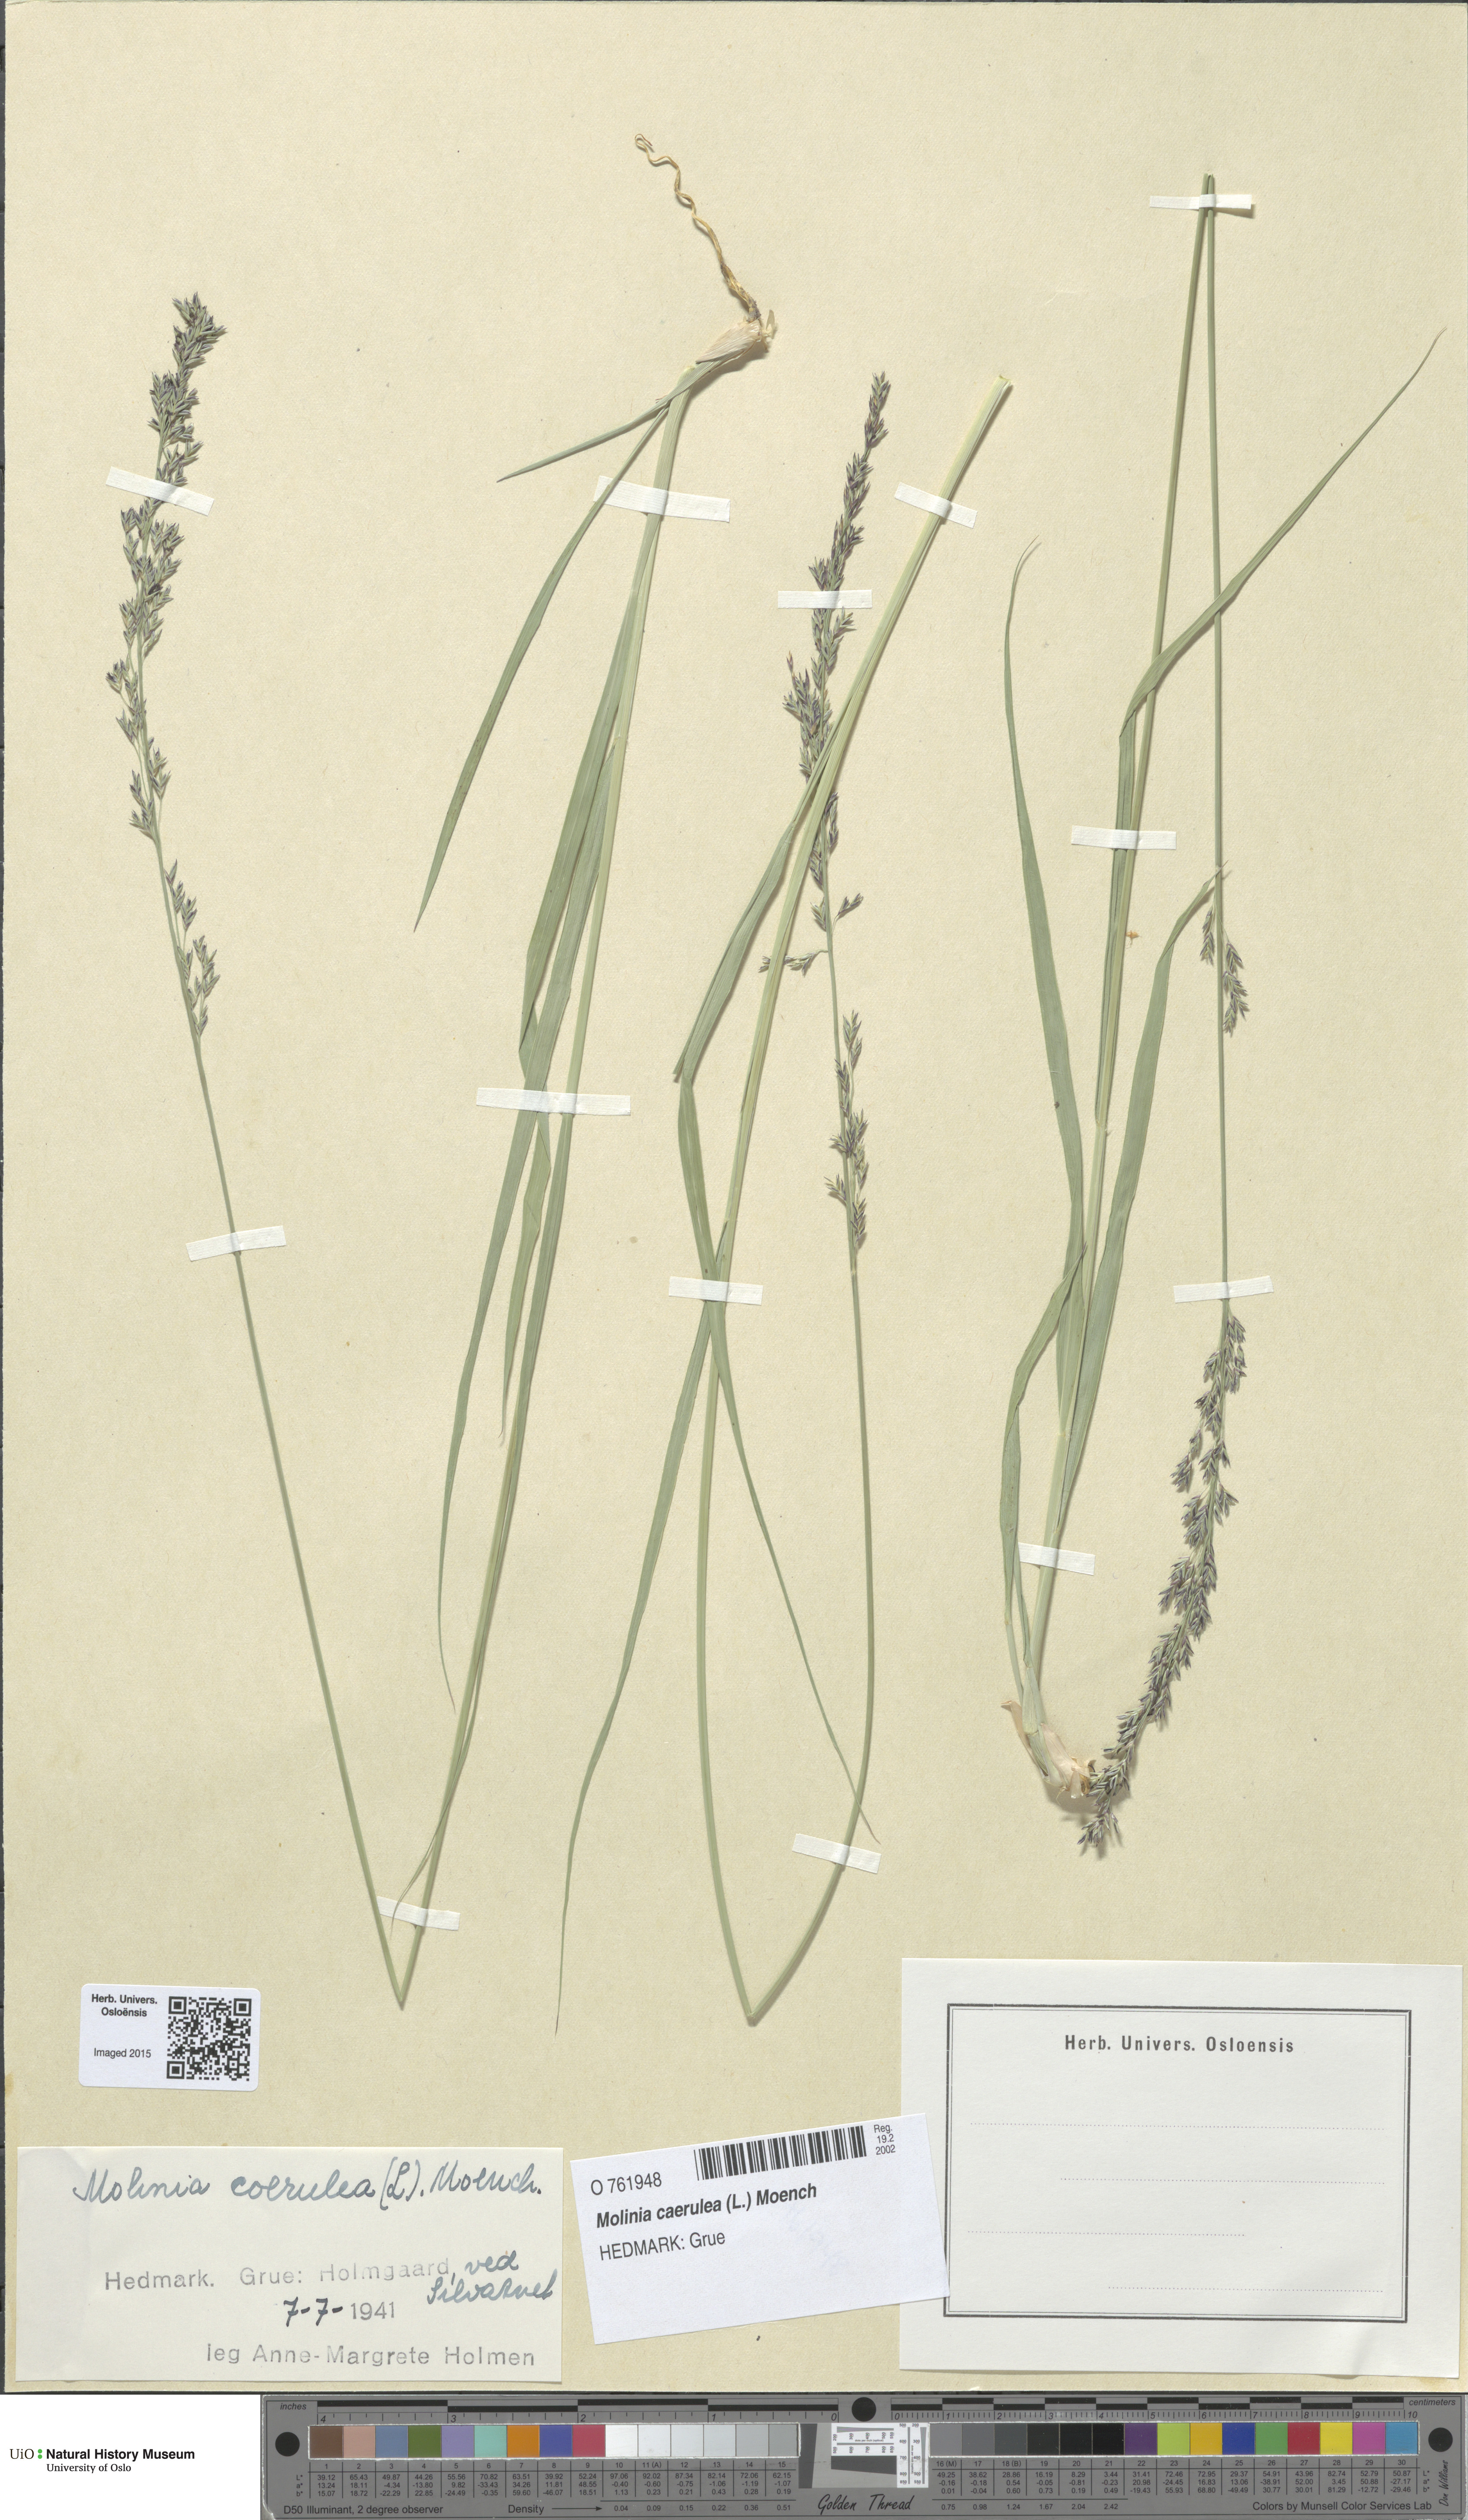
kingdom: Plantae
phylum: Tracheophyta
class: Liliopsida
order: Poales
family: Poaceae
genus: Molinia
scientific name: Molinia caerulea
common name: Purple moor-grass
